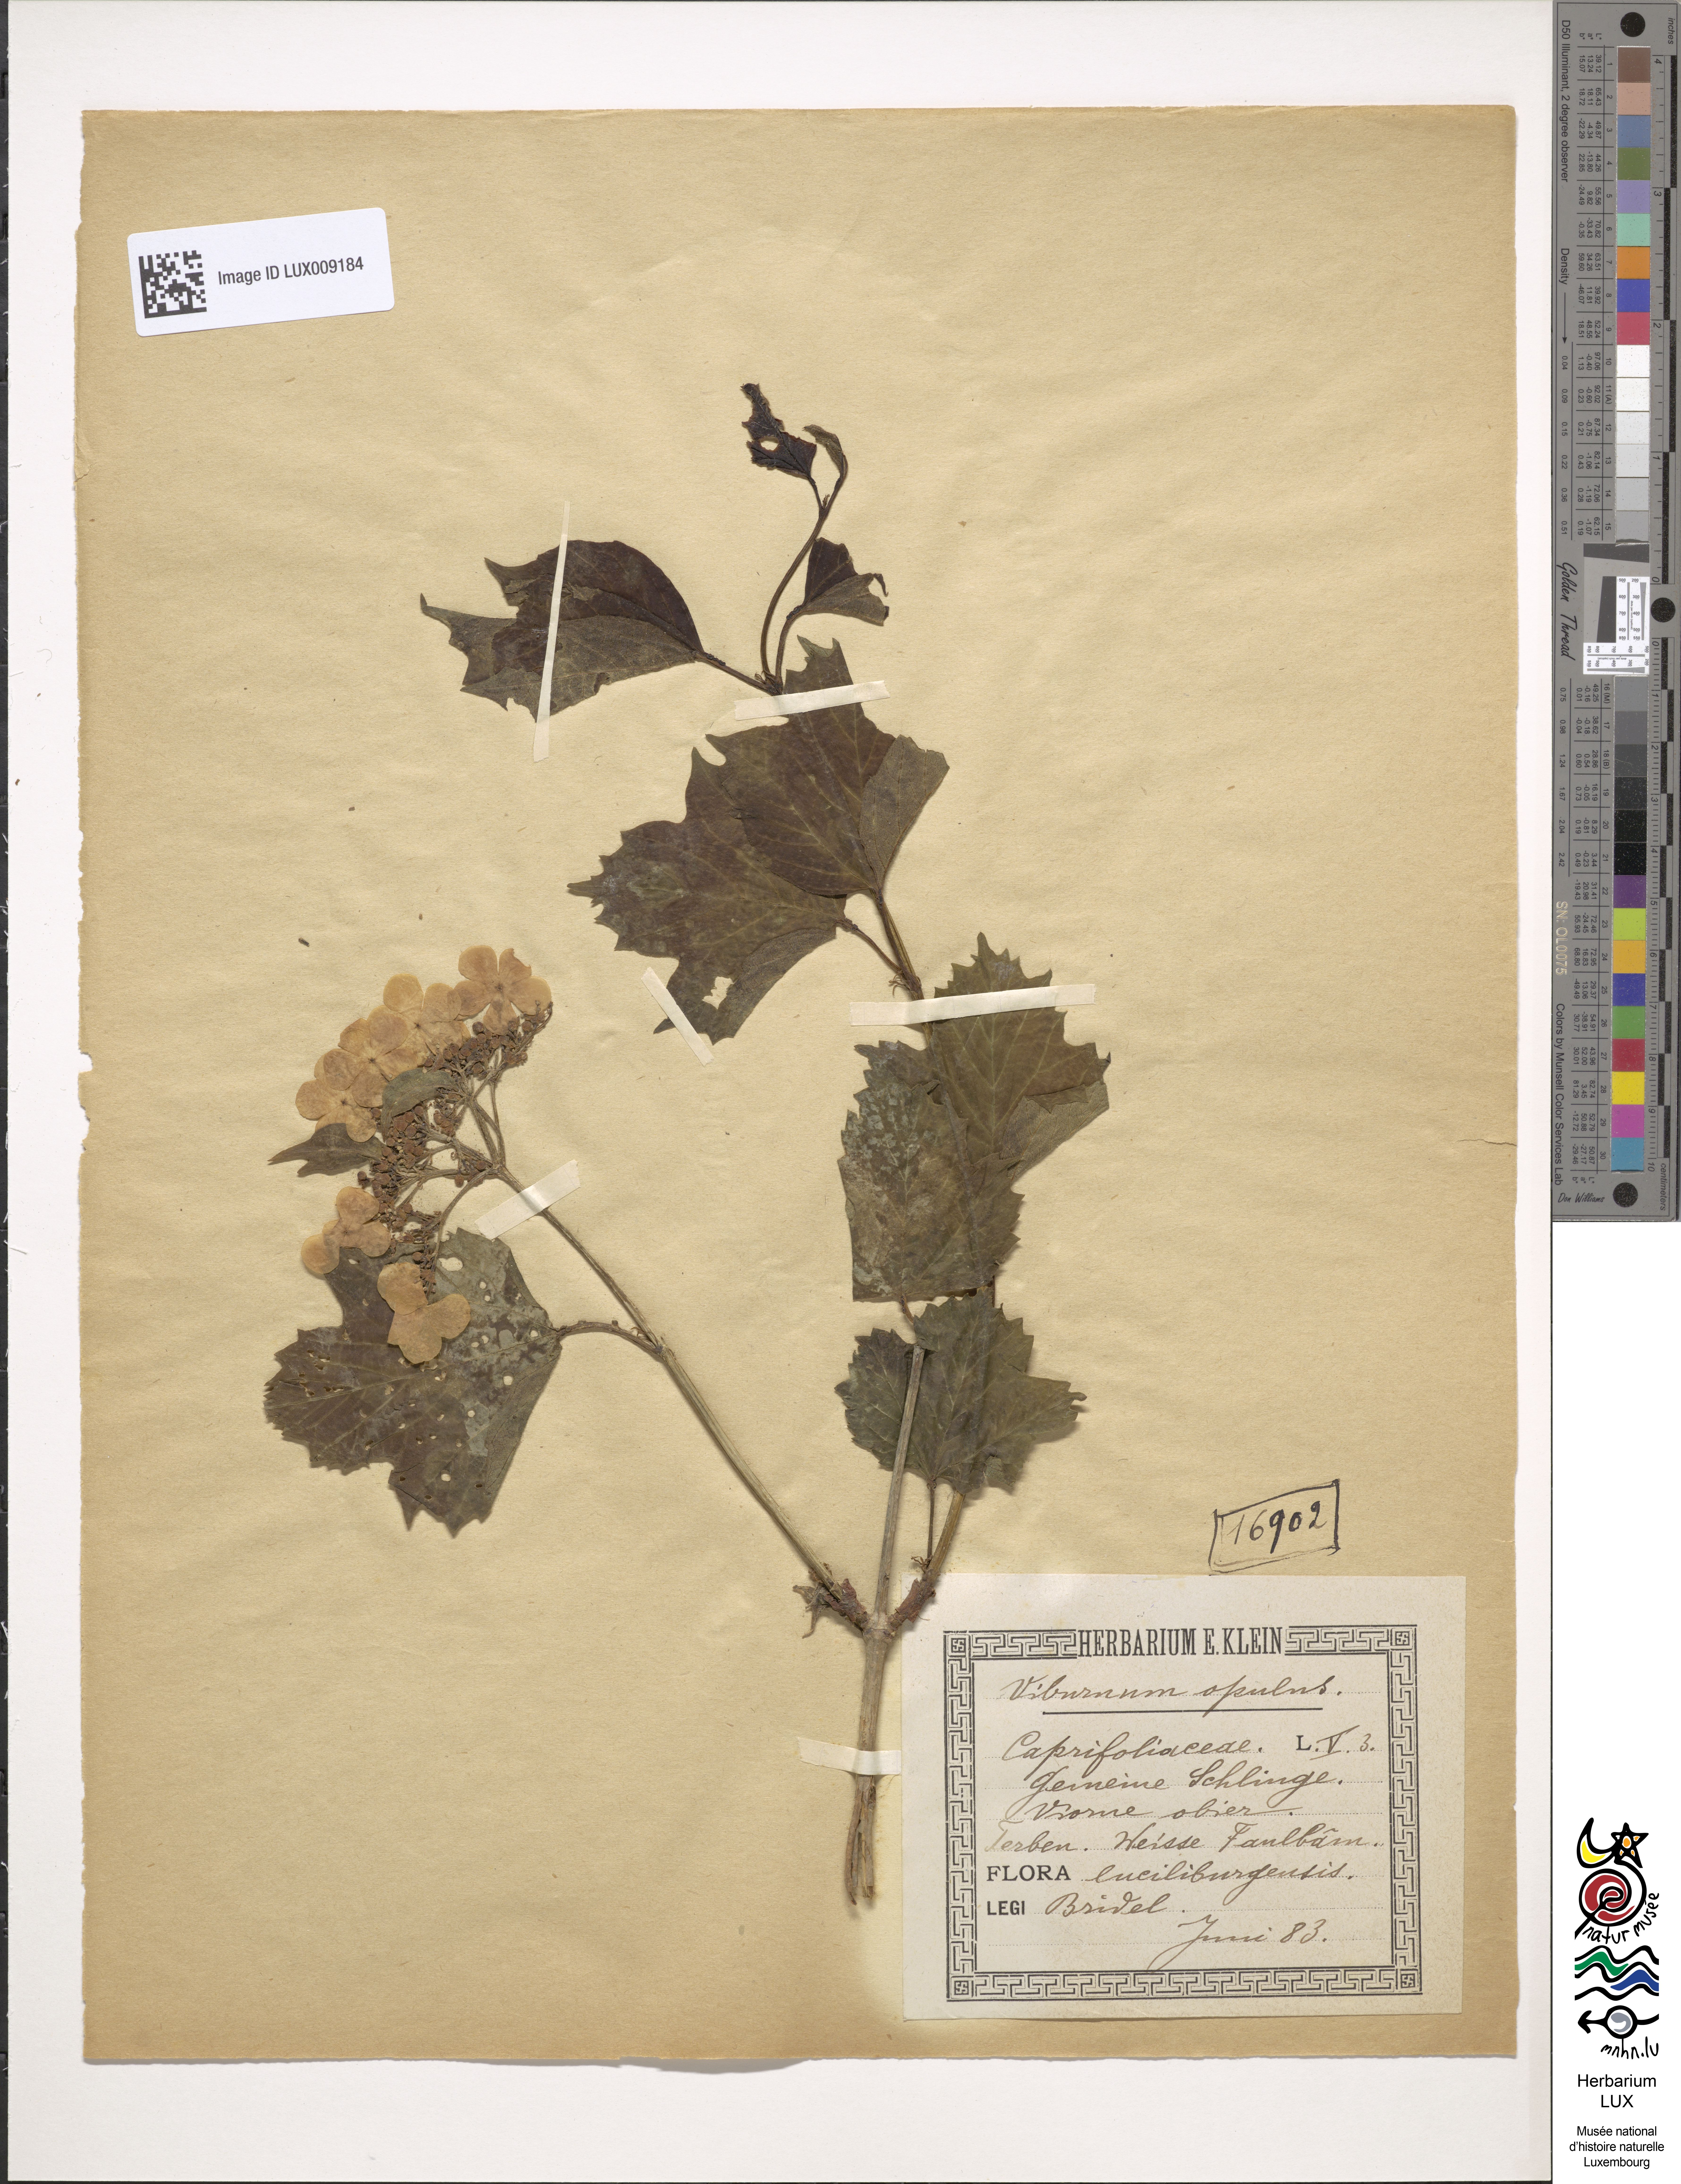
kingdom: Plantae
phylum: Tracheophyta
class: Magnoliopsida
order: Dipsacales
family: Viburnaceae
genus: Viburnum
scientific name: Viburnum opulus
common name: Guelder-rose
